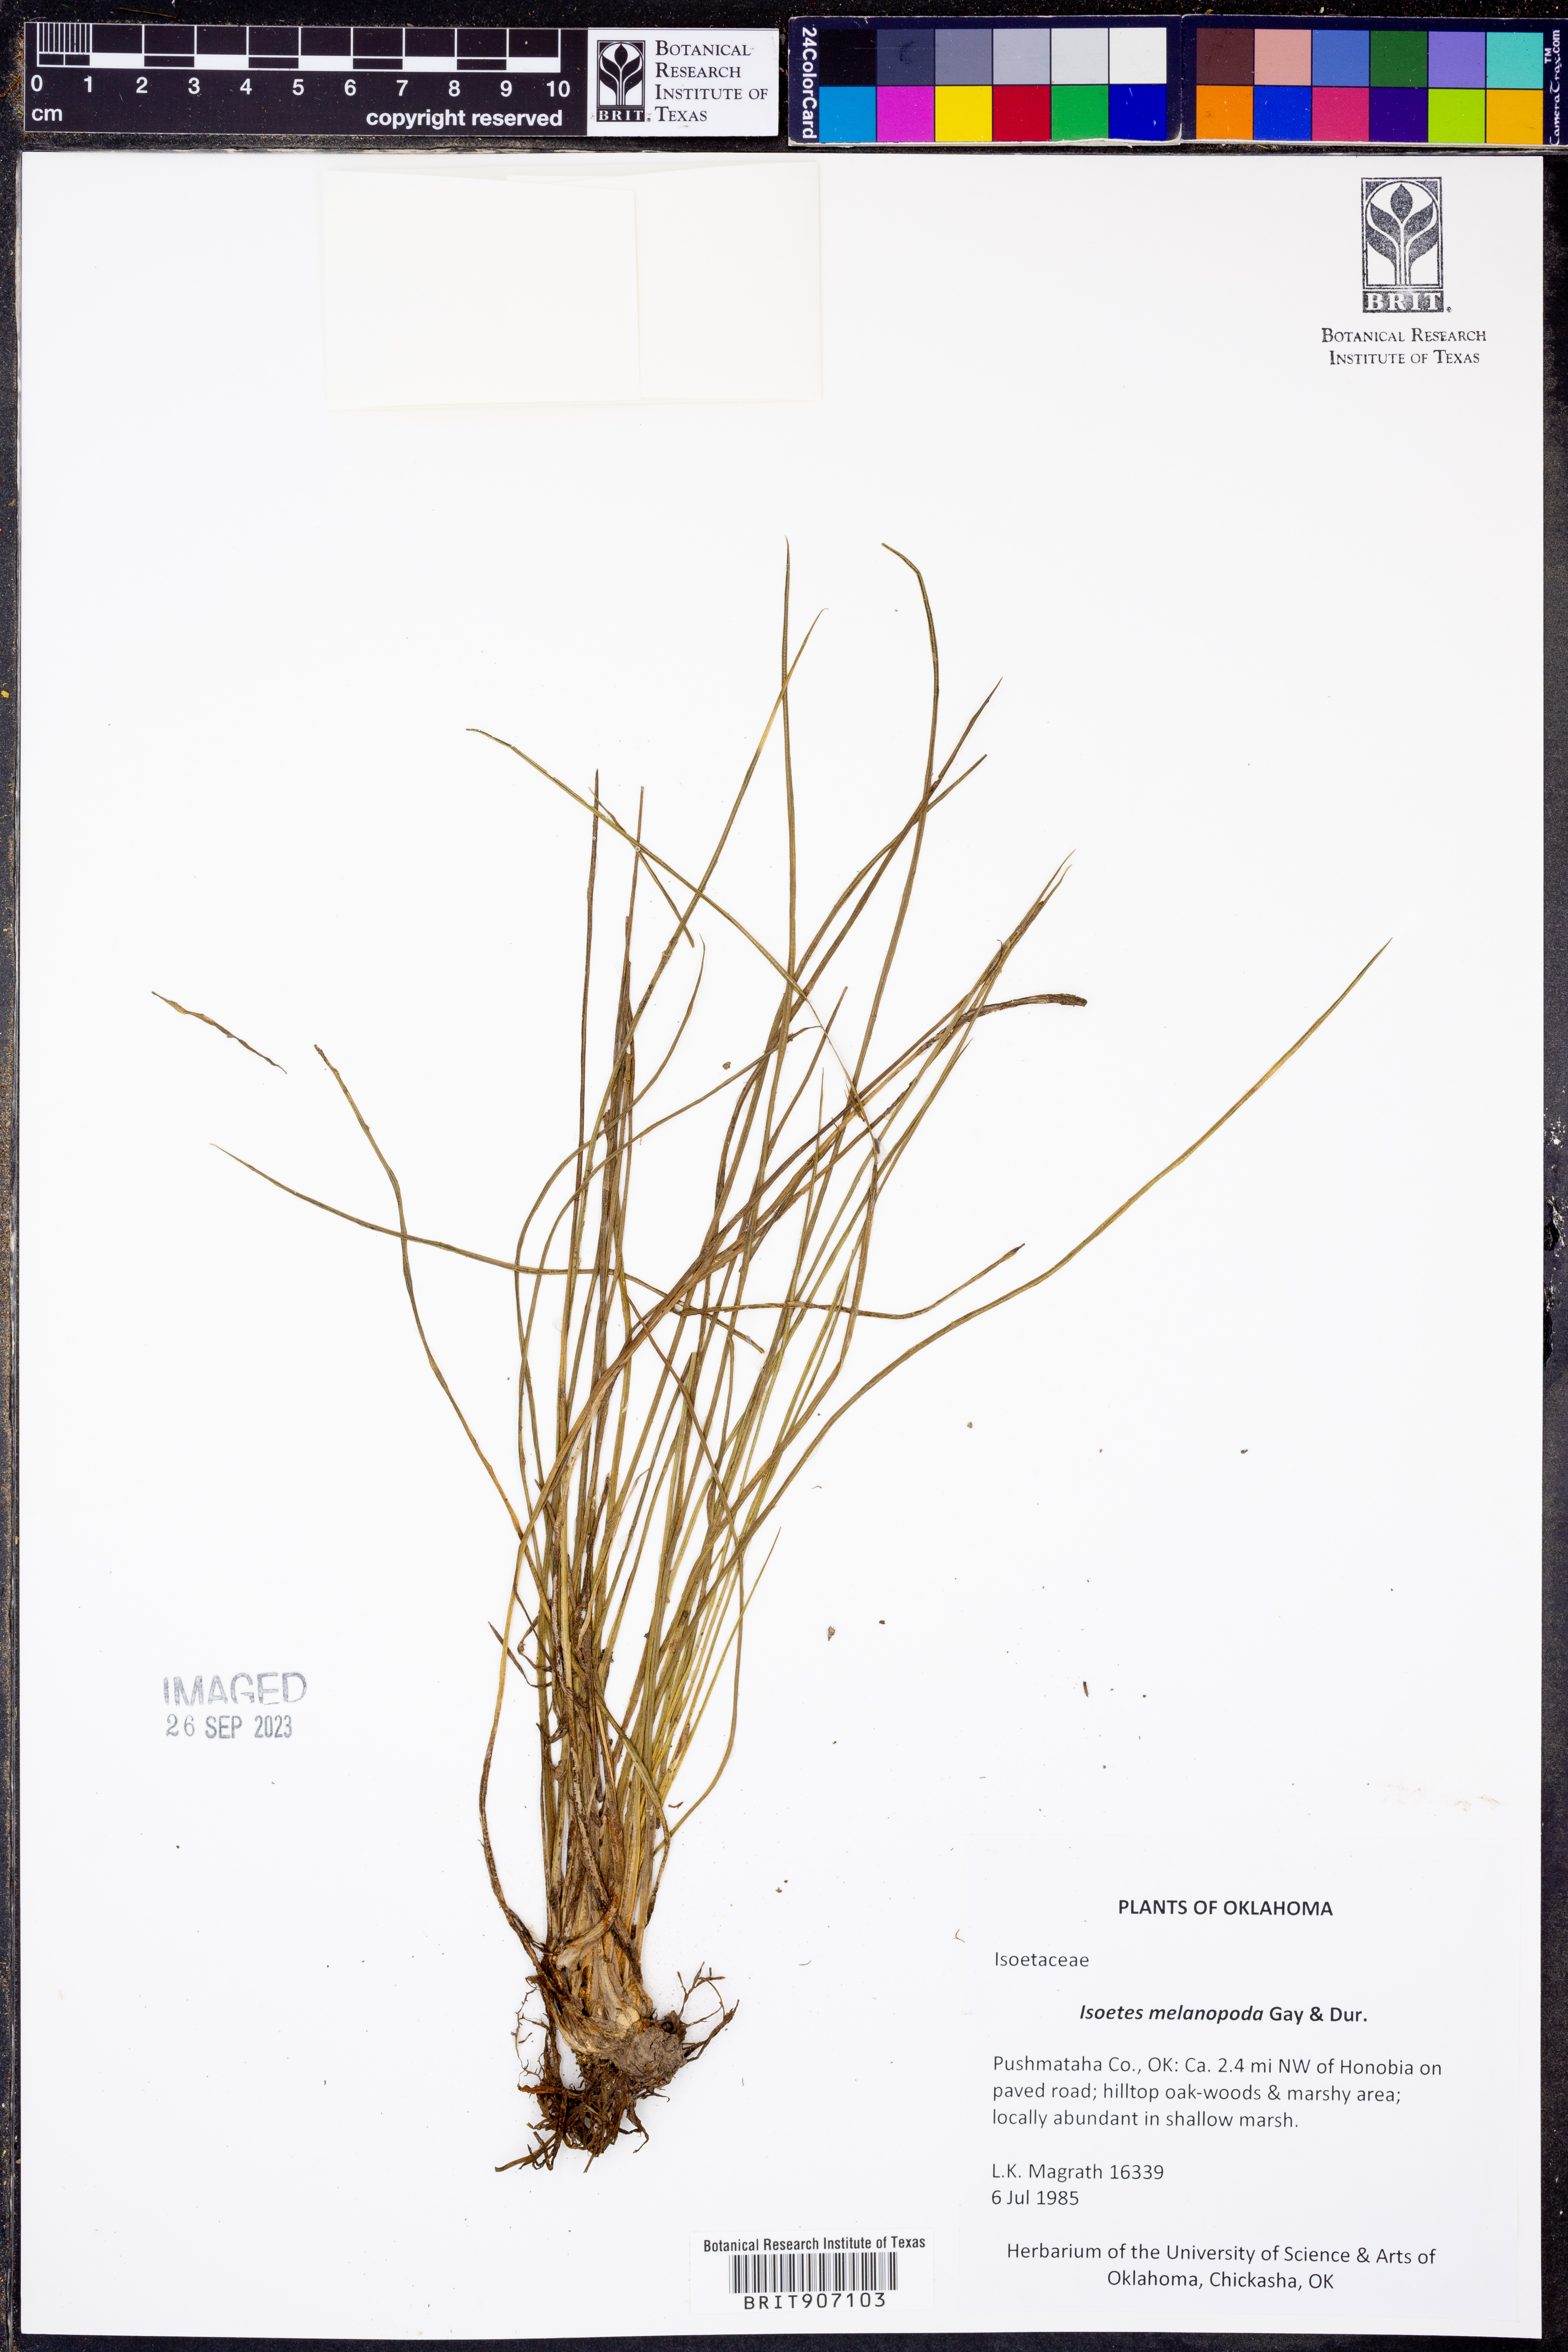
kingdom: Plantae
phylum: Tracheophyta
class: Lycopodiopsida
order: Isoetales
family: Isoetaceae
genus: Isoetes
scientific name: Isoetes melanopoda
